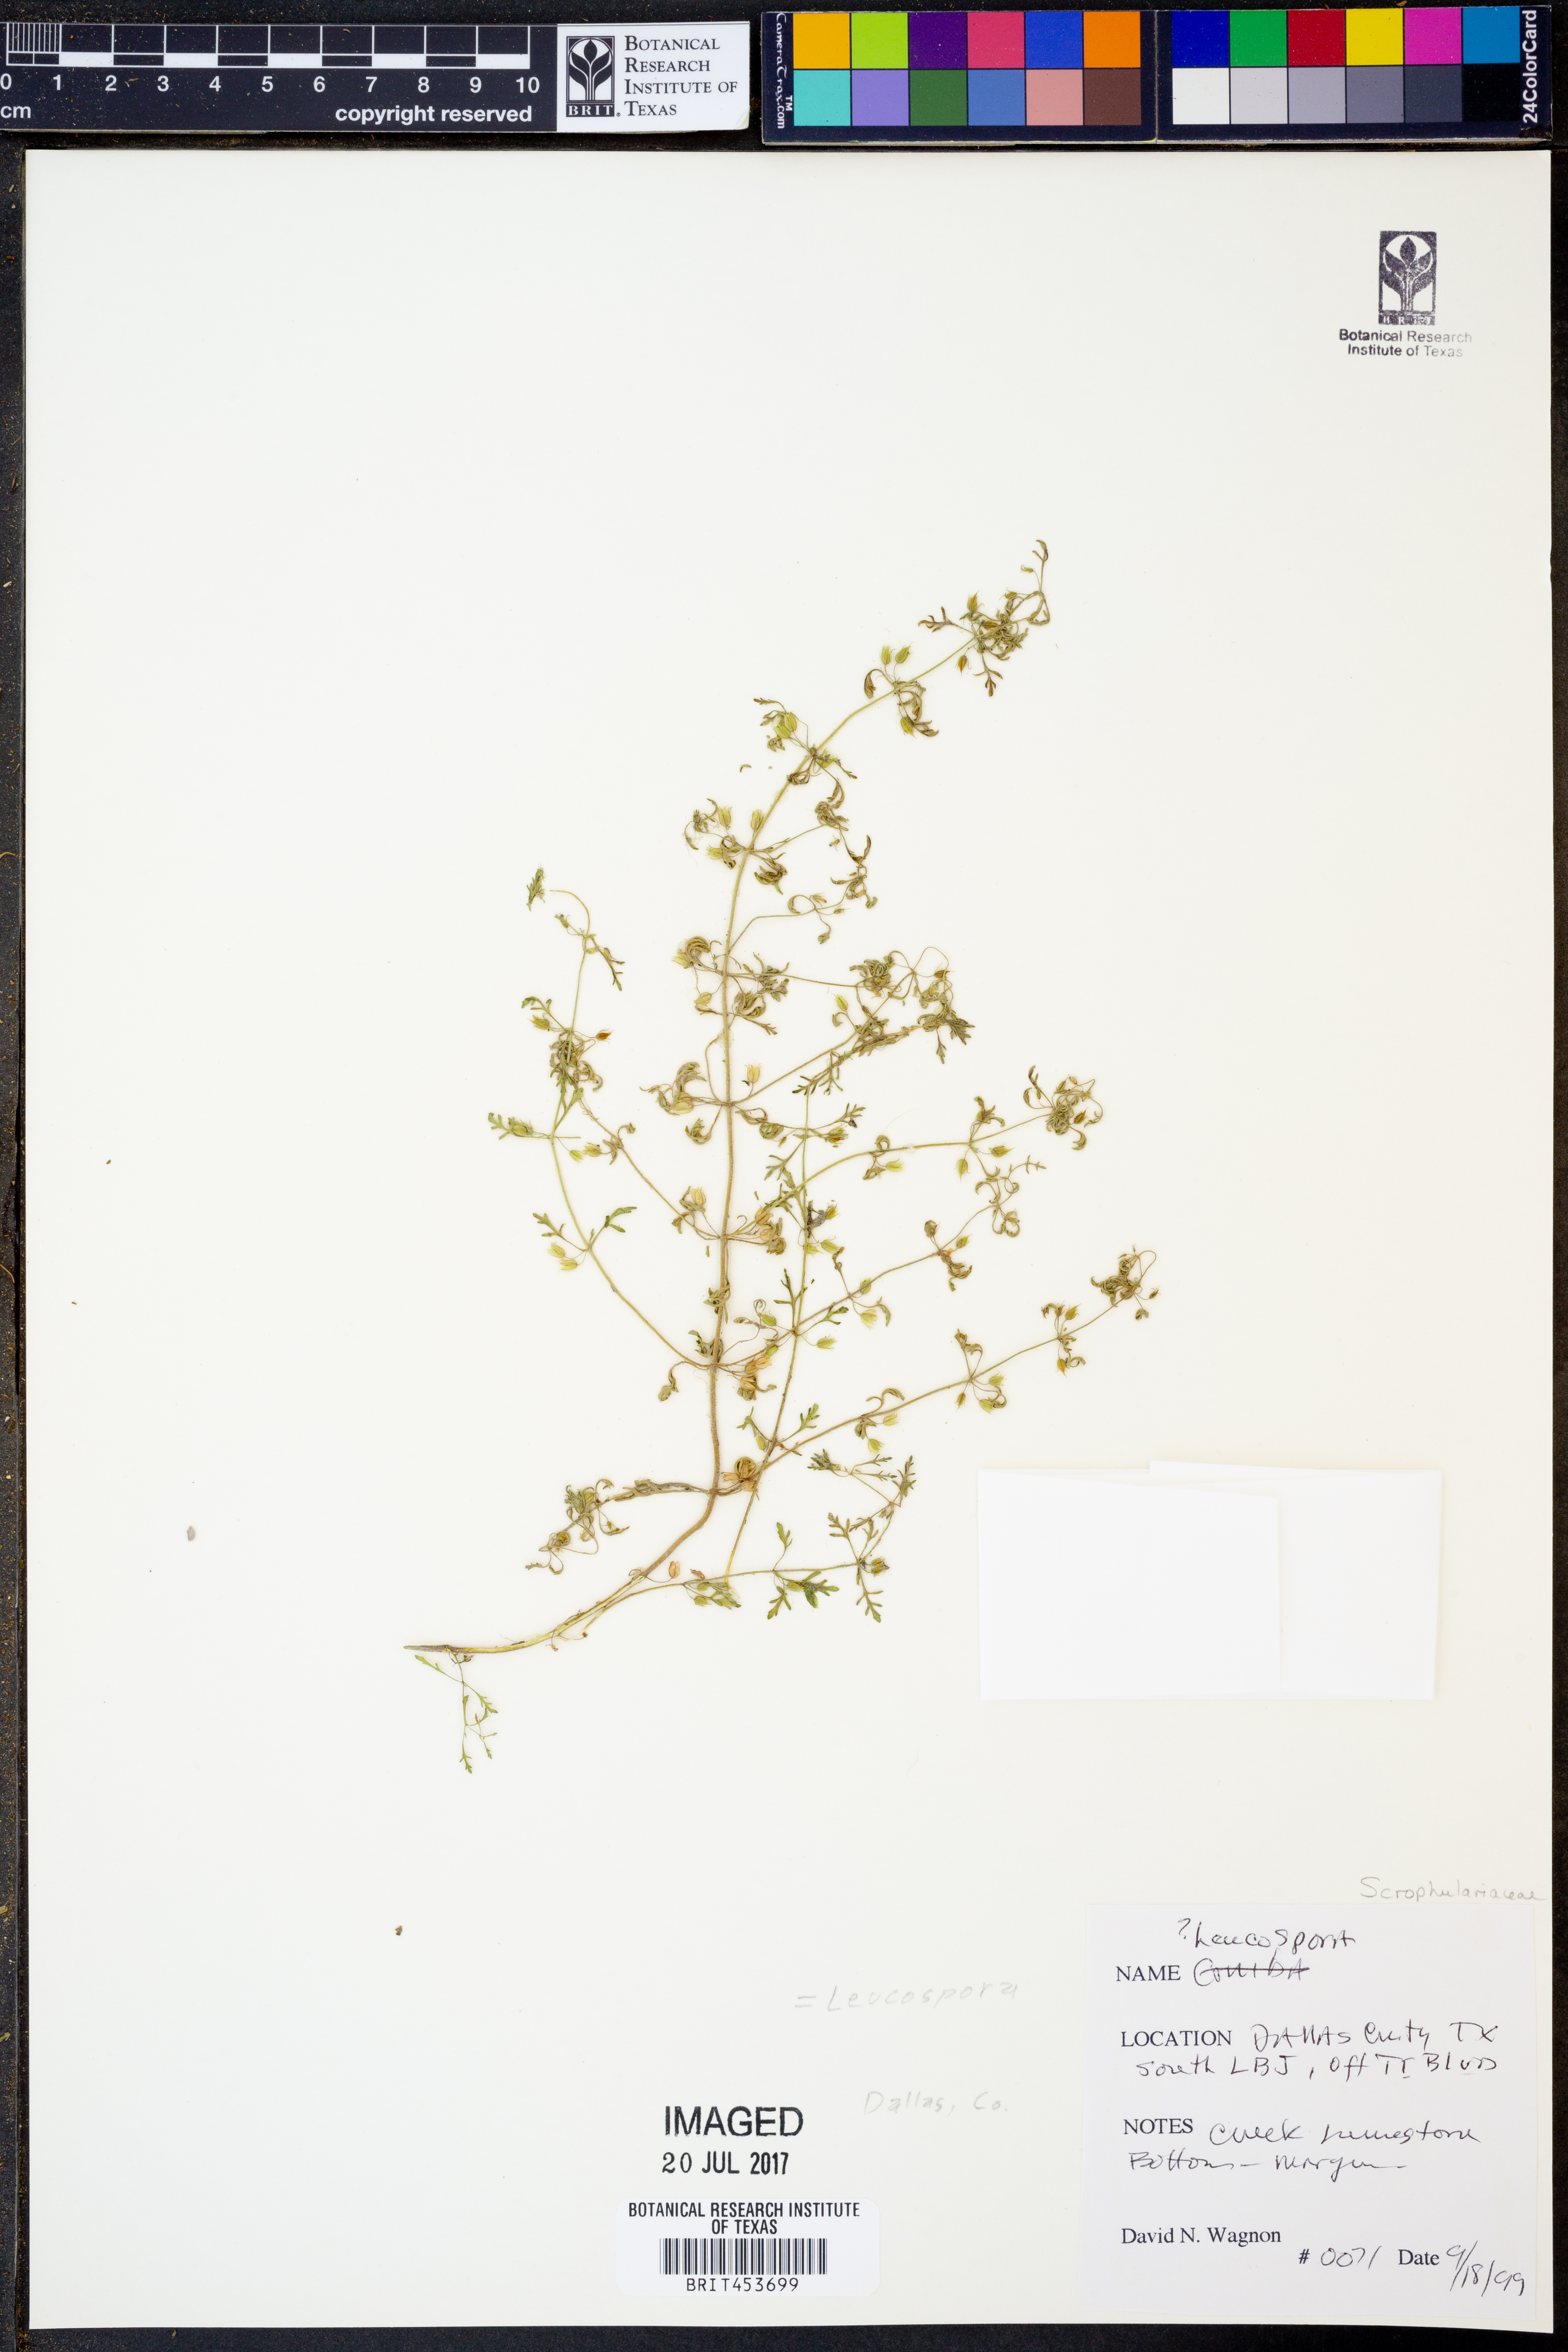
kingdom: Plantae
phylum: Tracheophyta
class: Magnoliopsida
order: Lamiales
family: Plantaginaceae
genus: Leucospora
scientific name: Leucospora
